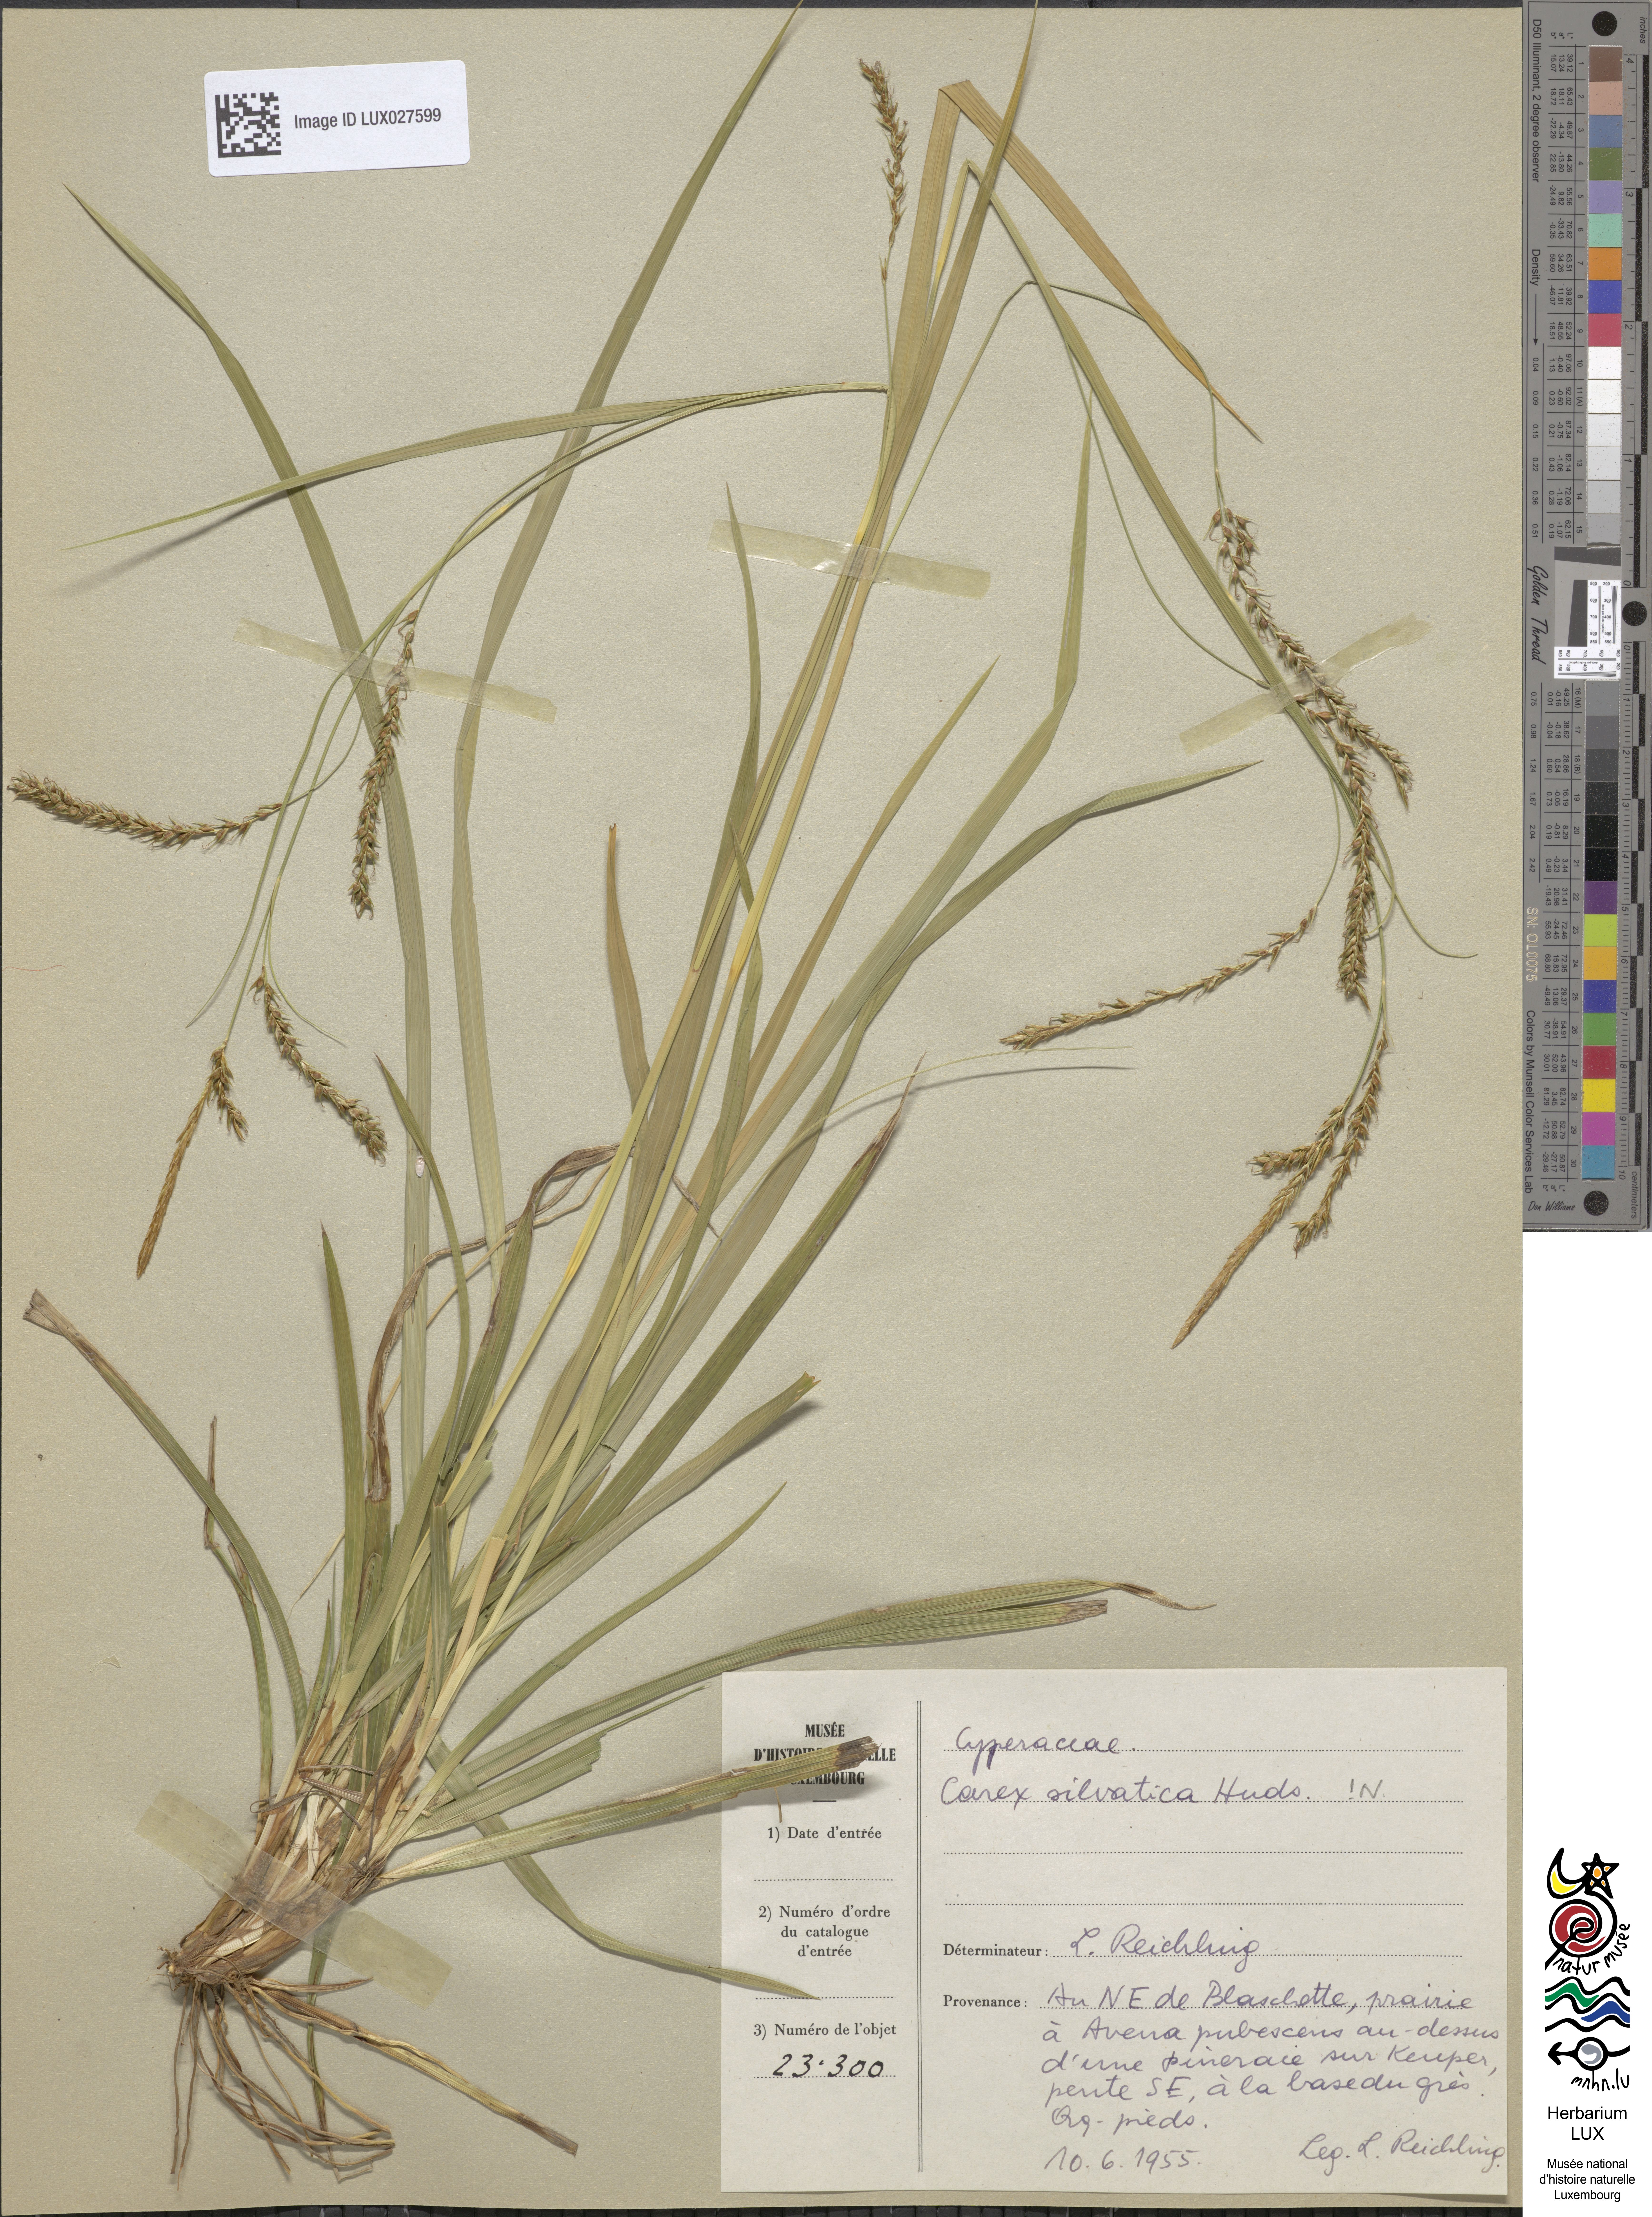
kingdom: Plantae
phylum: Tracheophyta
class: Liliopsida
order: Poales
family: Cyperaceae
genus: Carex
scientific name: Carex sylvatica
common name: Wood-sedge
